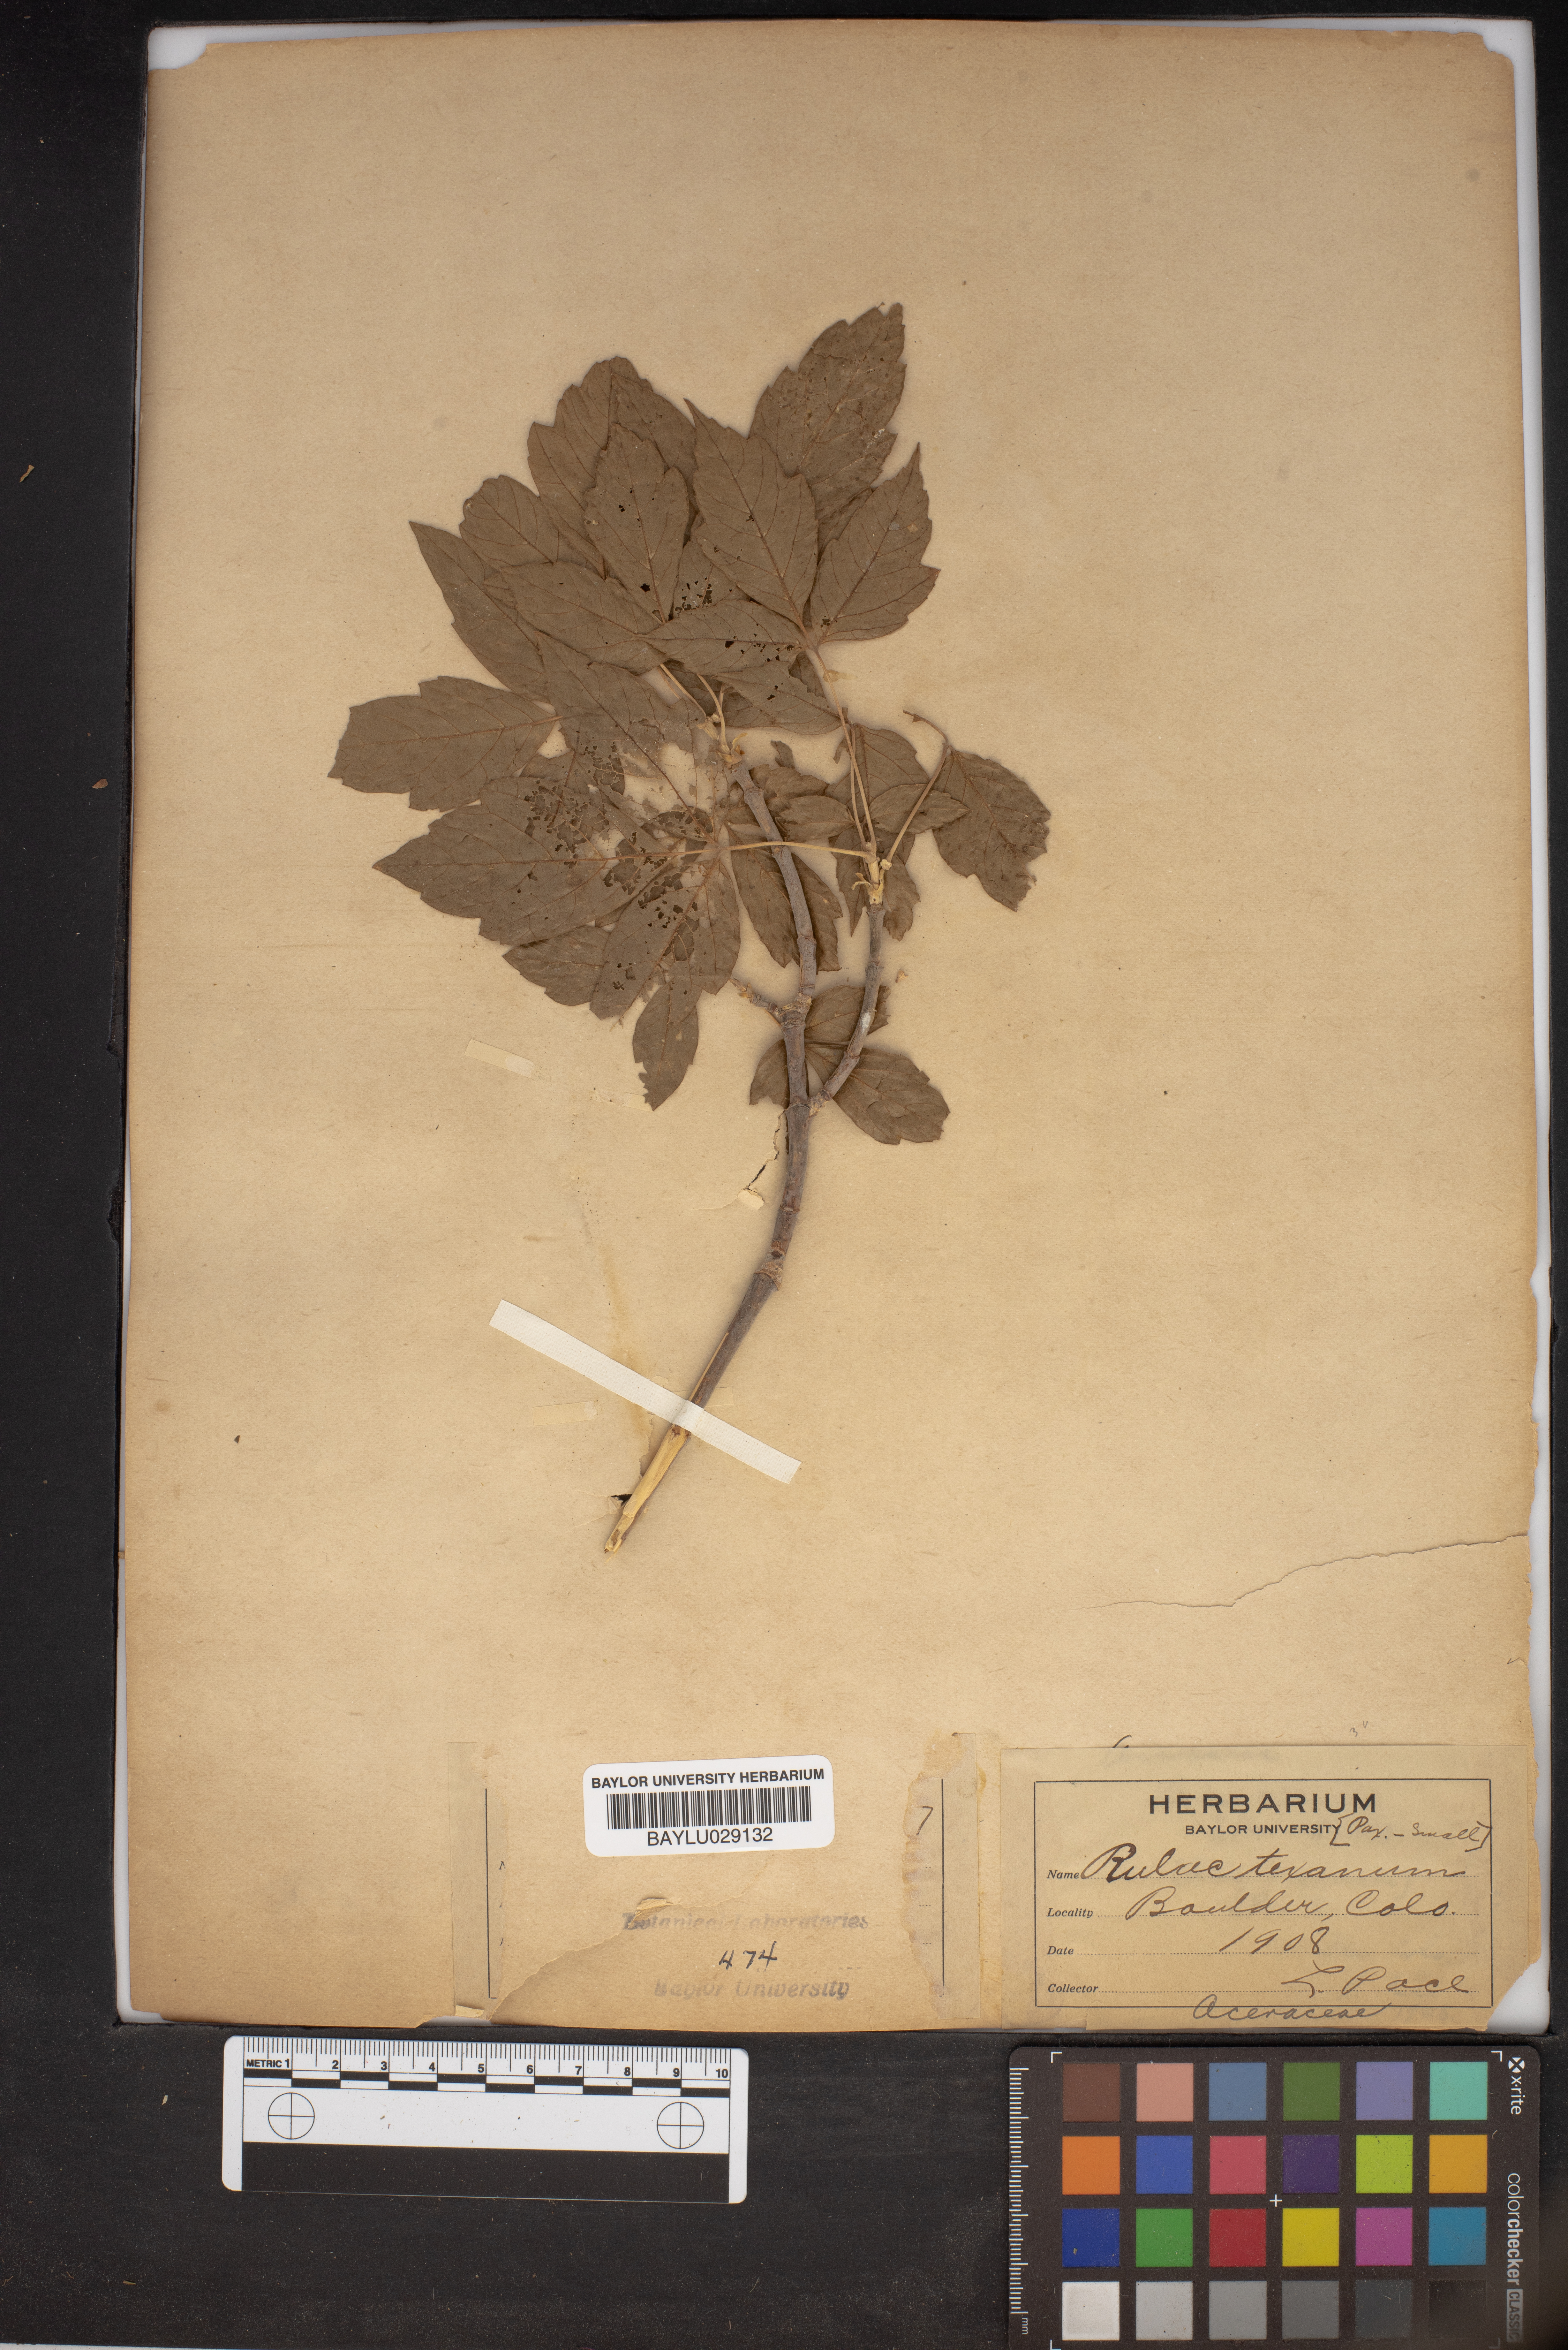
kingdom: Plantae
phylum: Tracheophyta
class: Magnoliopsida
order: Sapindales
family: Sapindaceae
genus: Acer
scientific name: Acer negundo
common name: Ashleaf maple
